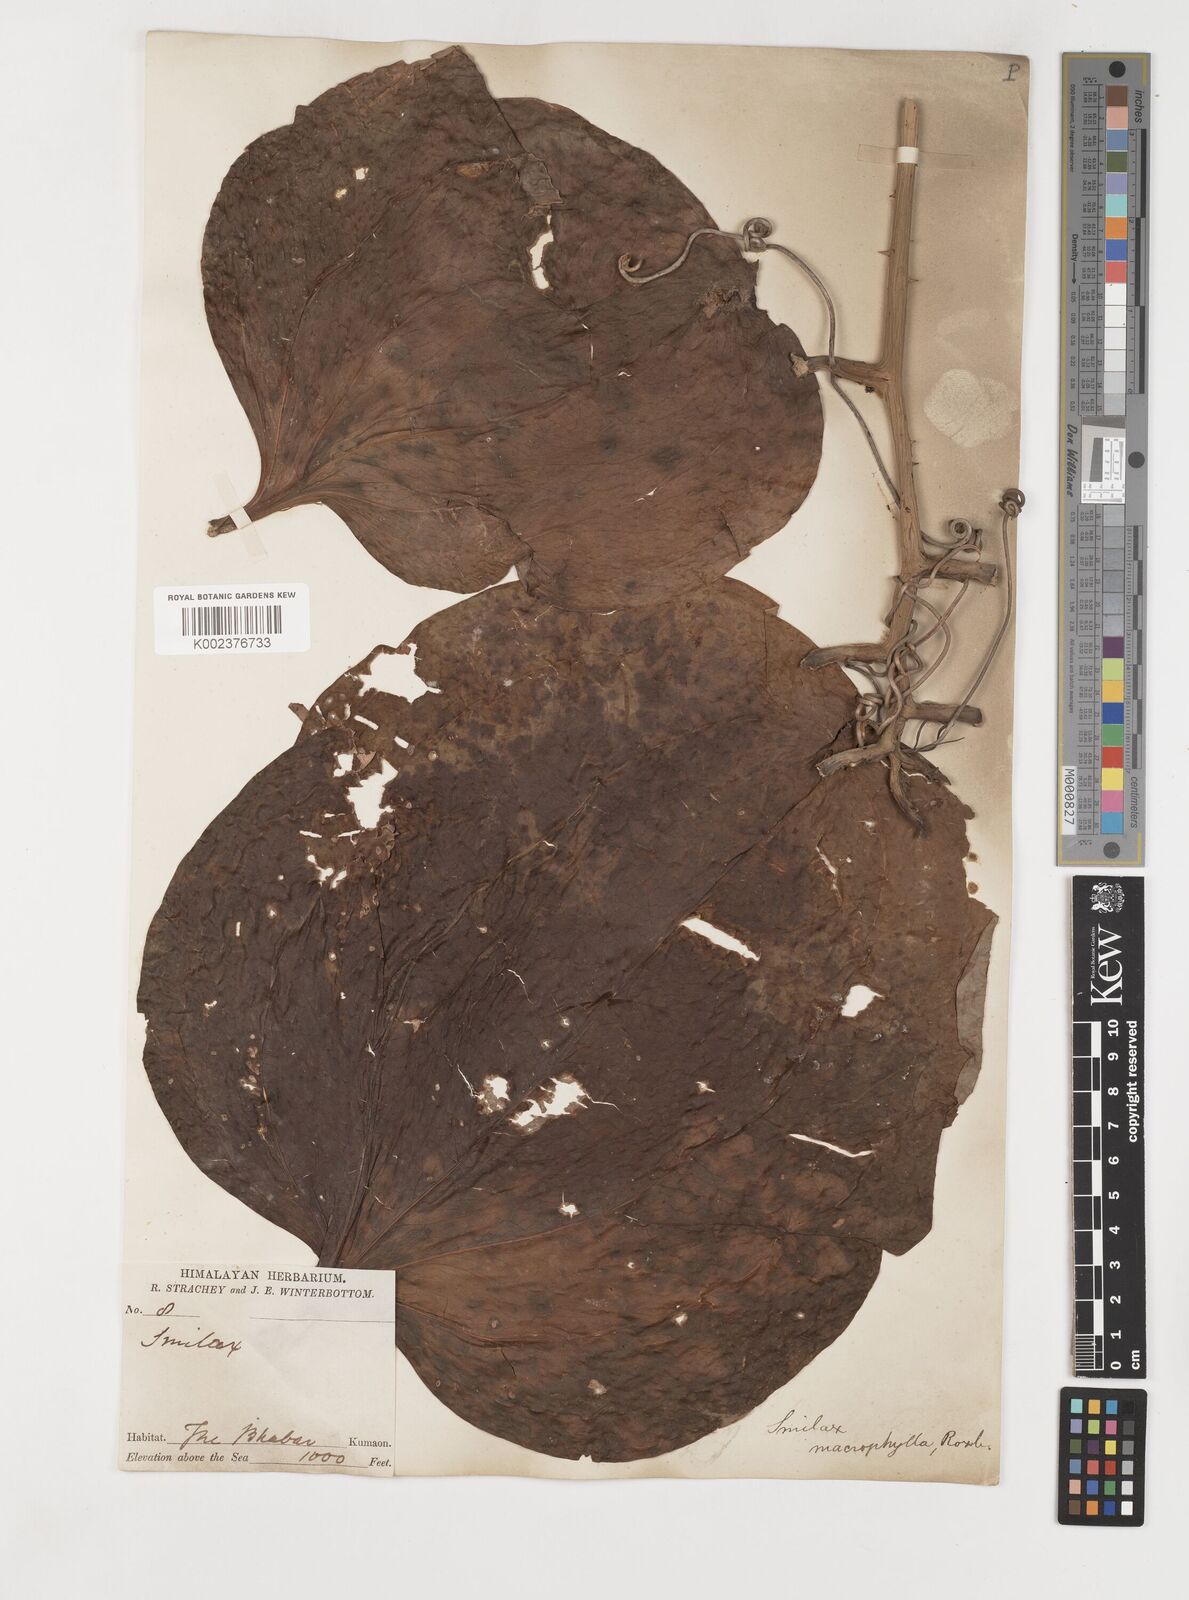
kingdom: Plantae
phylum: Tracheophyta
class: Liliopsida
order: Liliales
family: Smilacaceae
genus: Smilax
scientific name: Smilax ovalifolia
